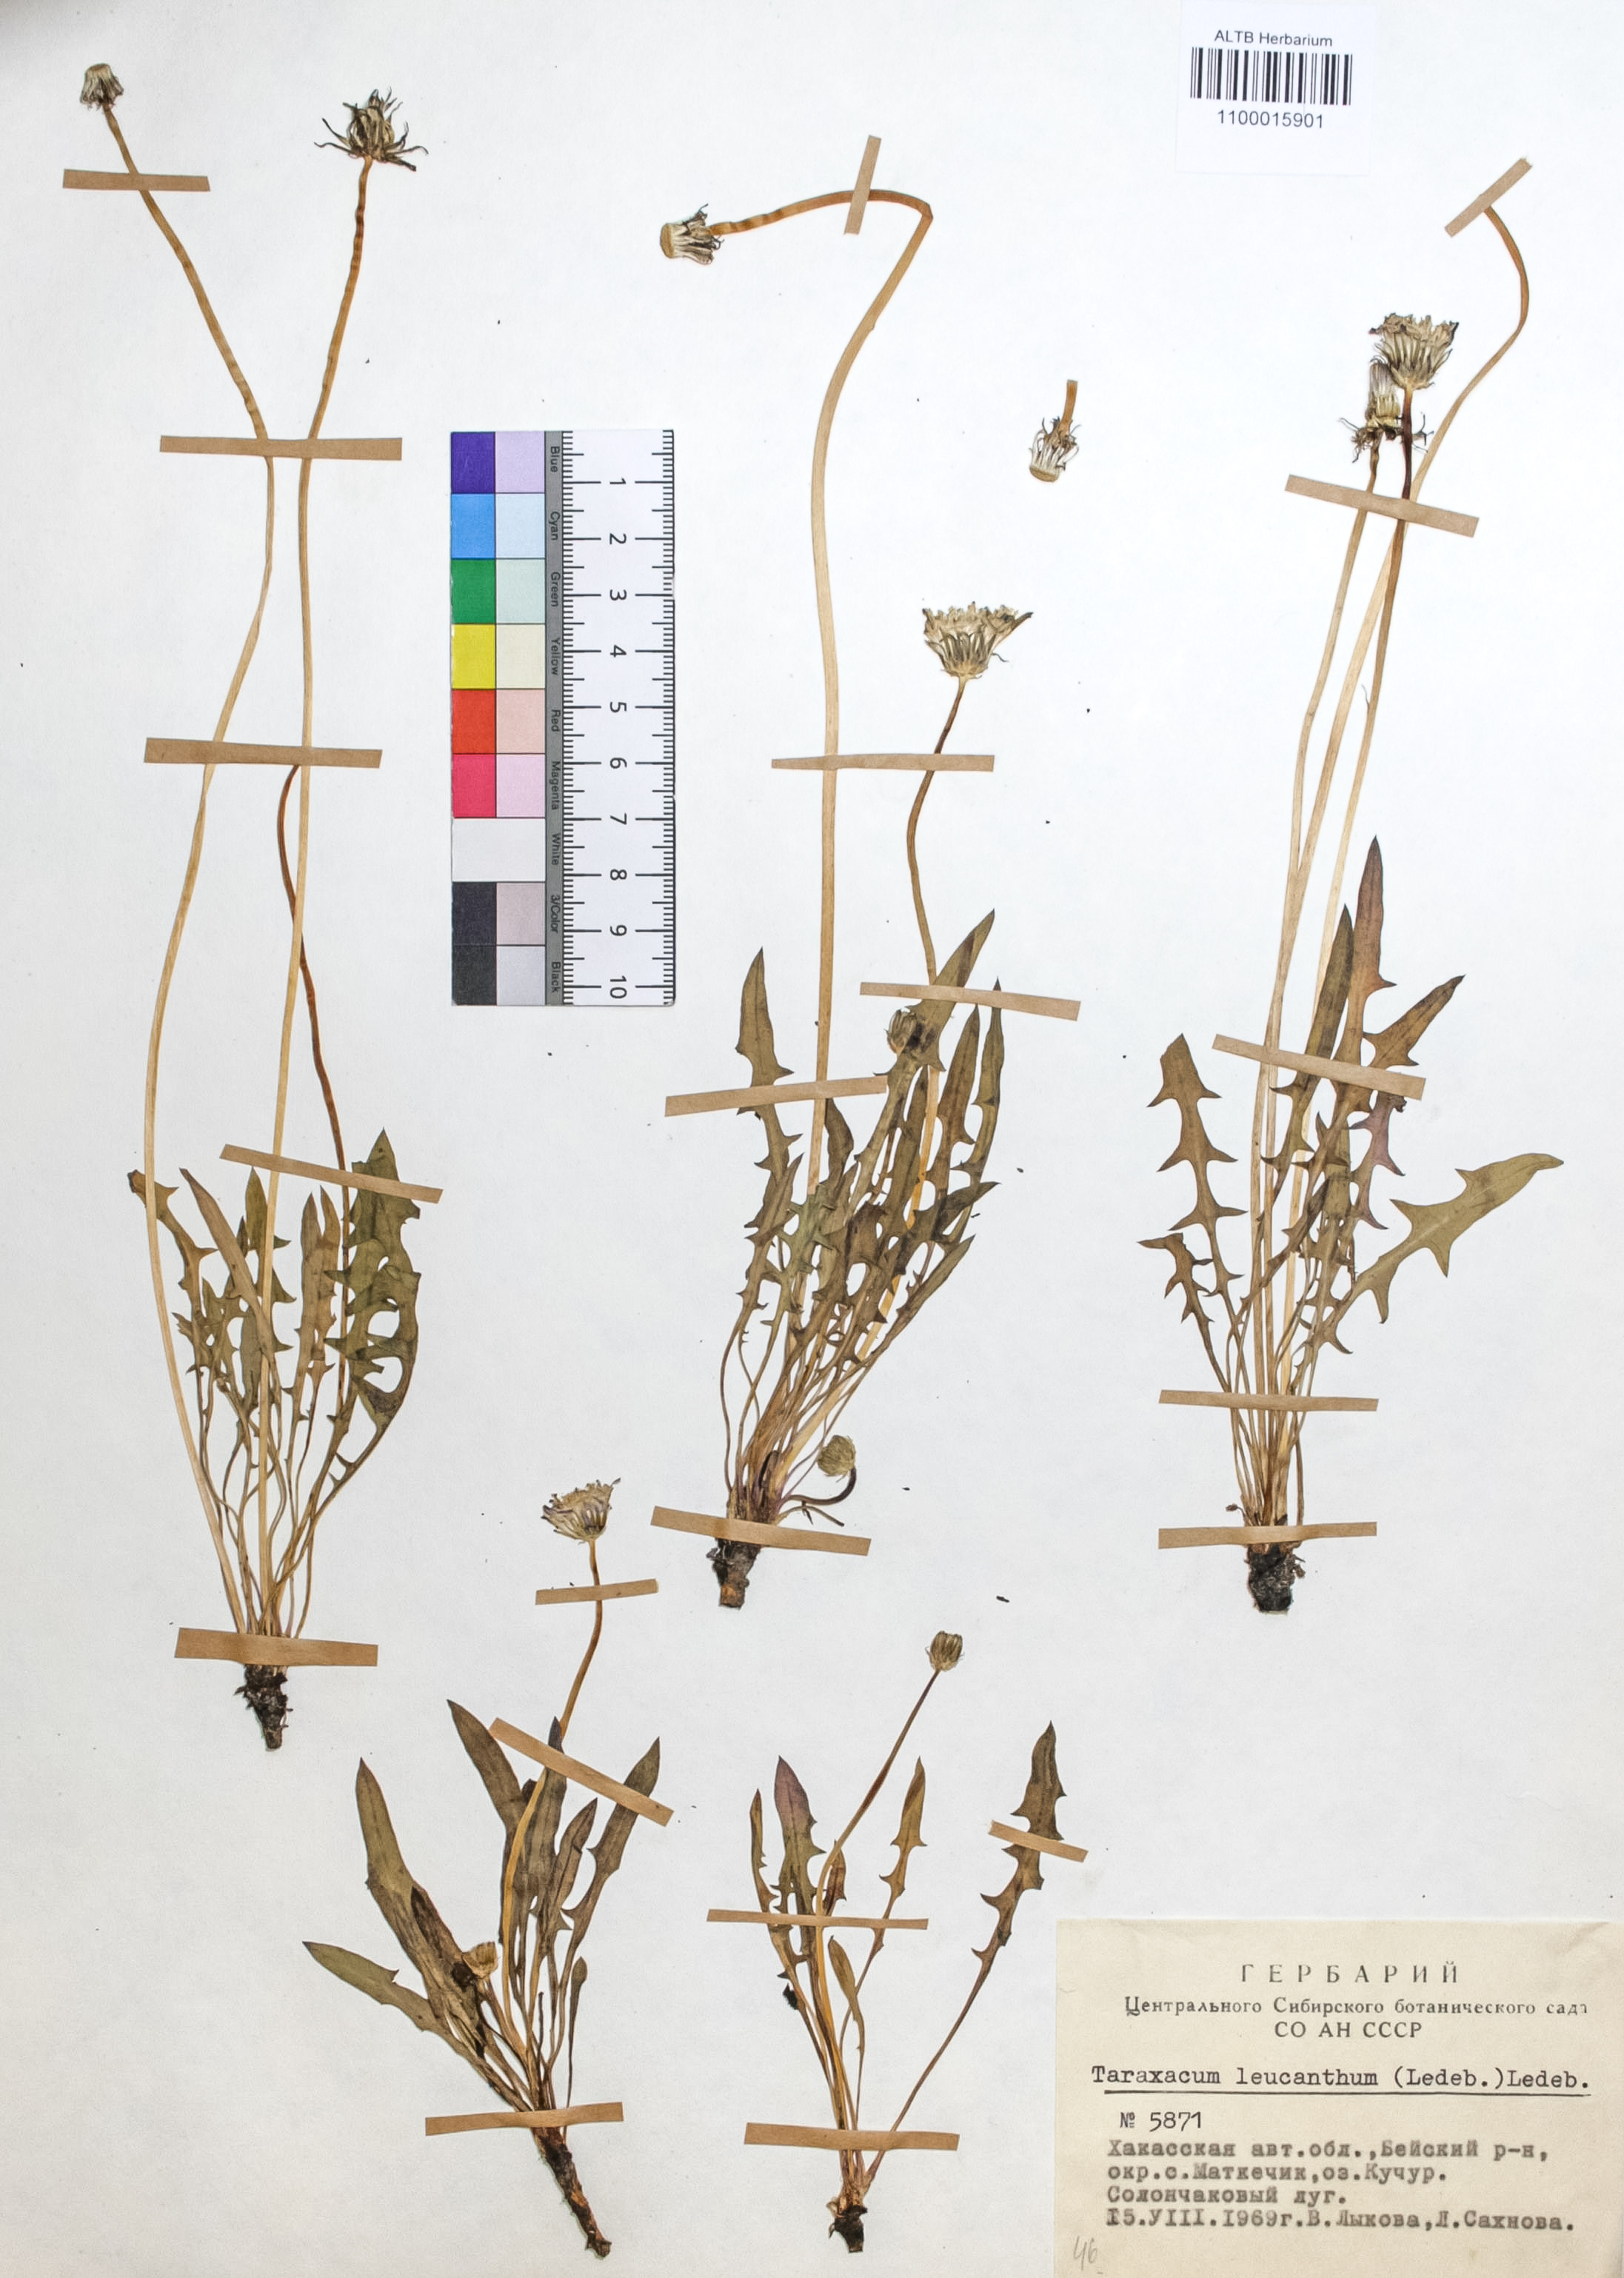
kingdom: Plantae
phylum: Tracheophyta
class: Magnoliopsida
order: Asterales
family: Asteraceae
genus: Taraxacum
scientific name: Taraxacum leucanthum
